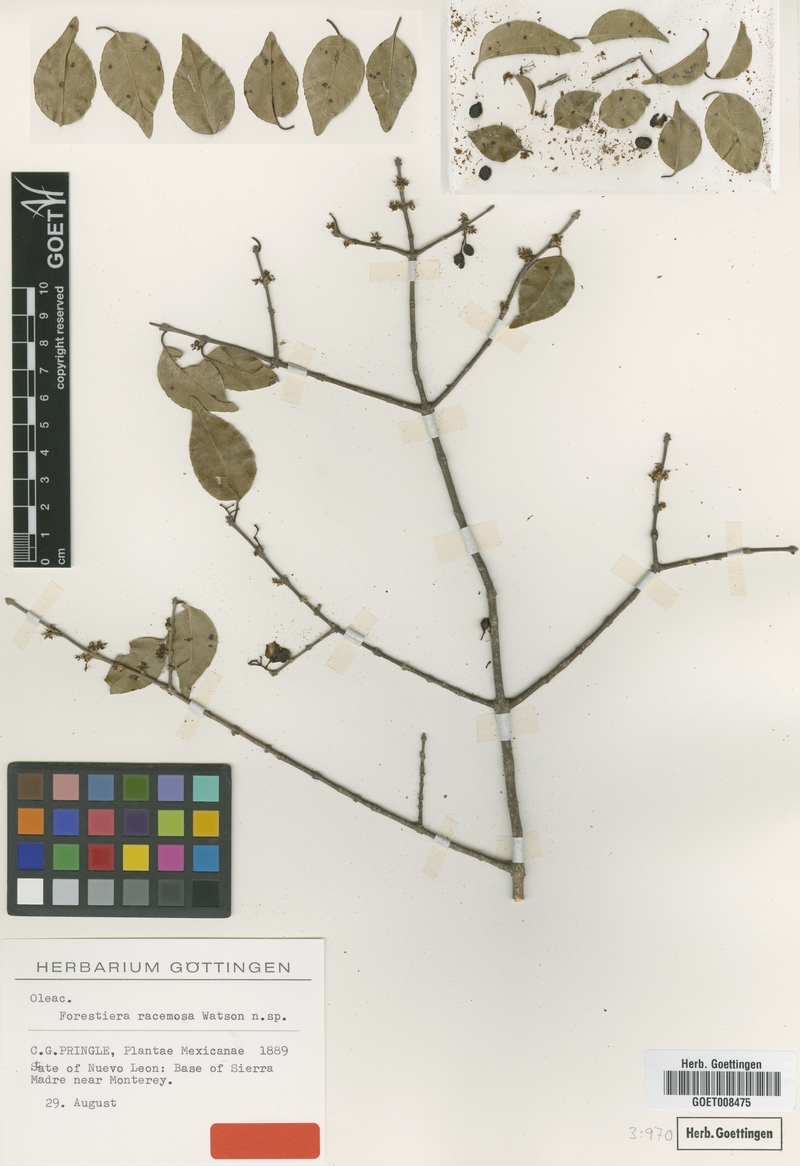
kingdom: Plantae
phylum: Tracheophyta
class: Magnoliopsida
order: Lamiales
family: Oleaceae
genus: Forestiera
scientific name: Forestiera racemosa
